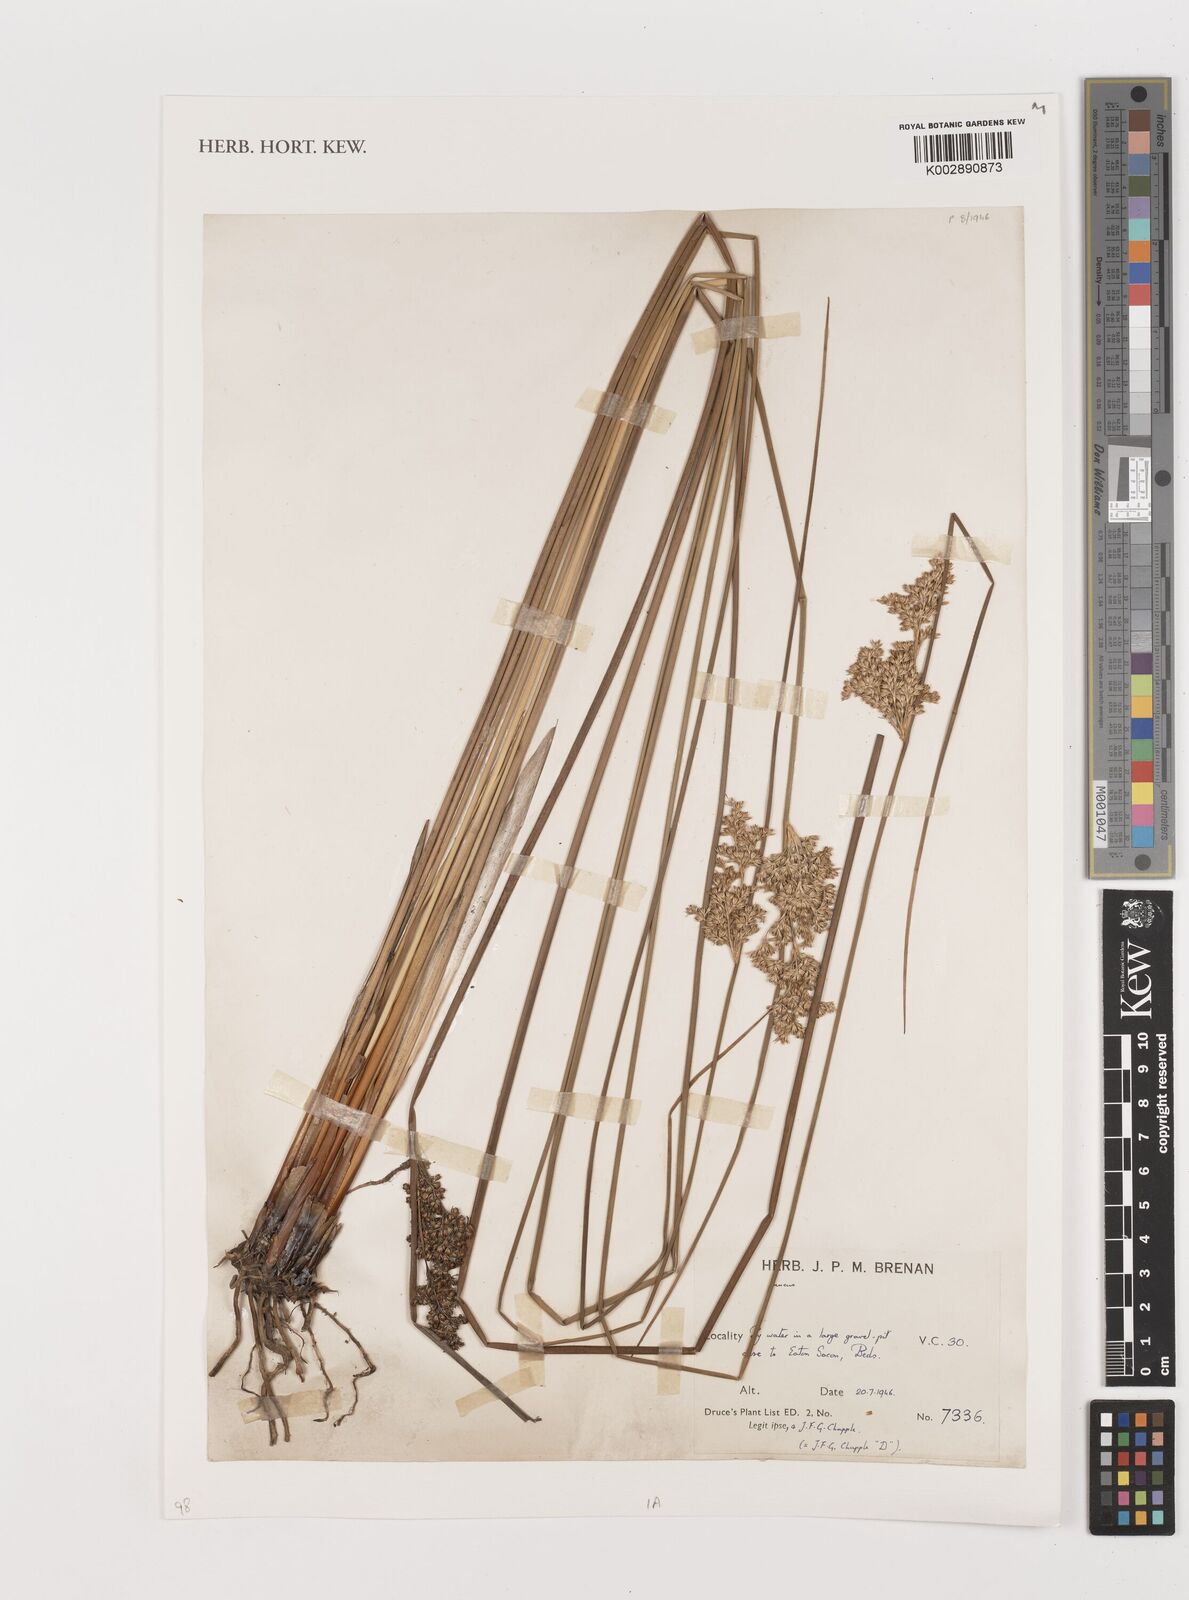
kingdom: Plantae
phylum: Tracheophyta
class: Liliopsida
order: Poales
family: Juncaceae
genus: Juncus
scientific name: Juncus
